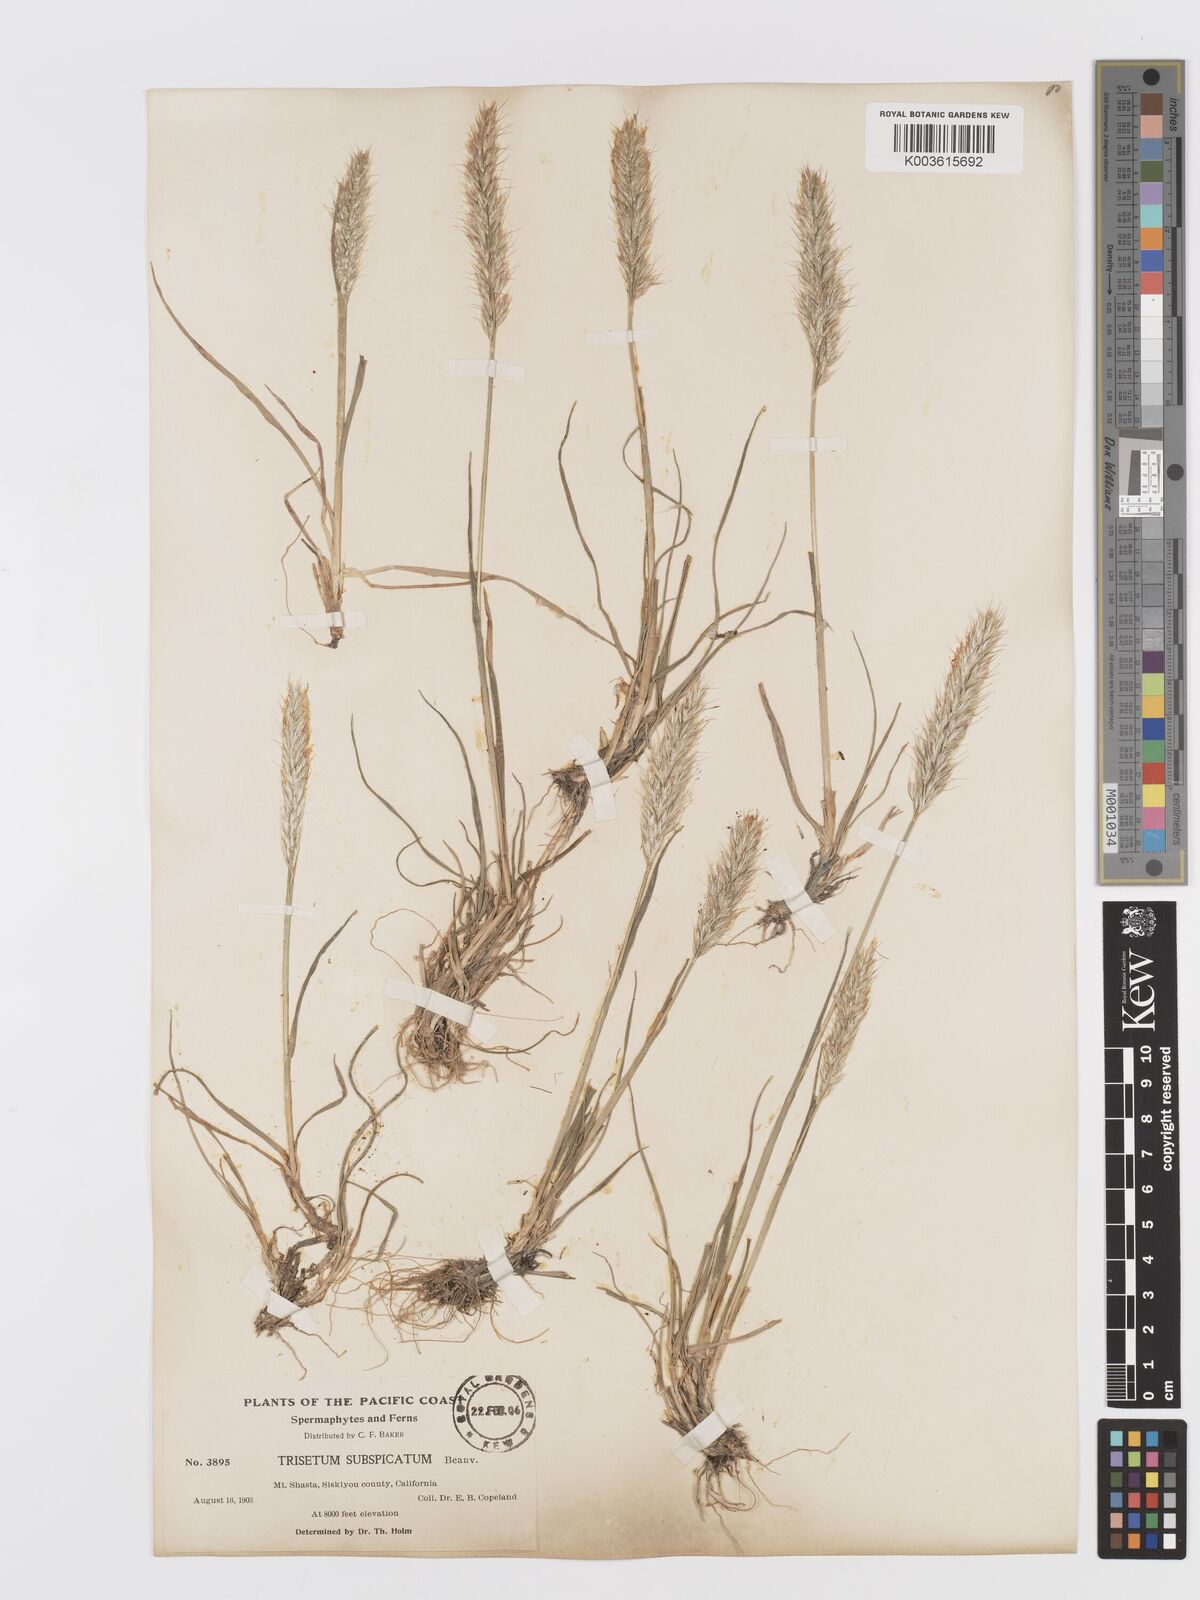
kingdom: Plantae
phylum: Tracheophyta
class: Liliopsida
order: Poales
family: Poaceae
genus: Koeleria
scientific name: Koeleria spicata
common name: Mountain trisetum
